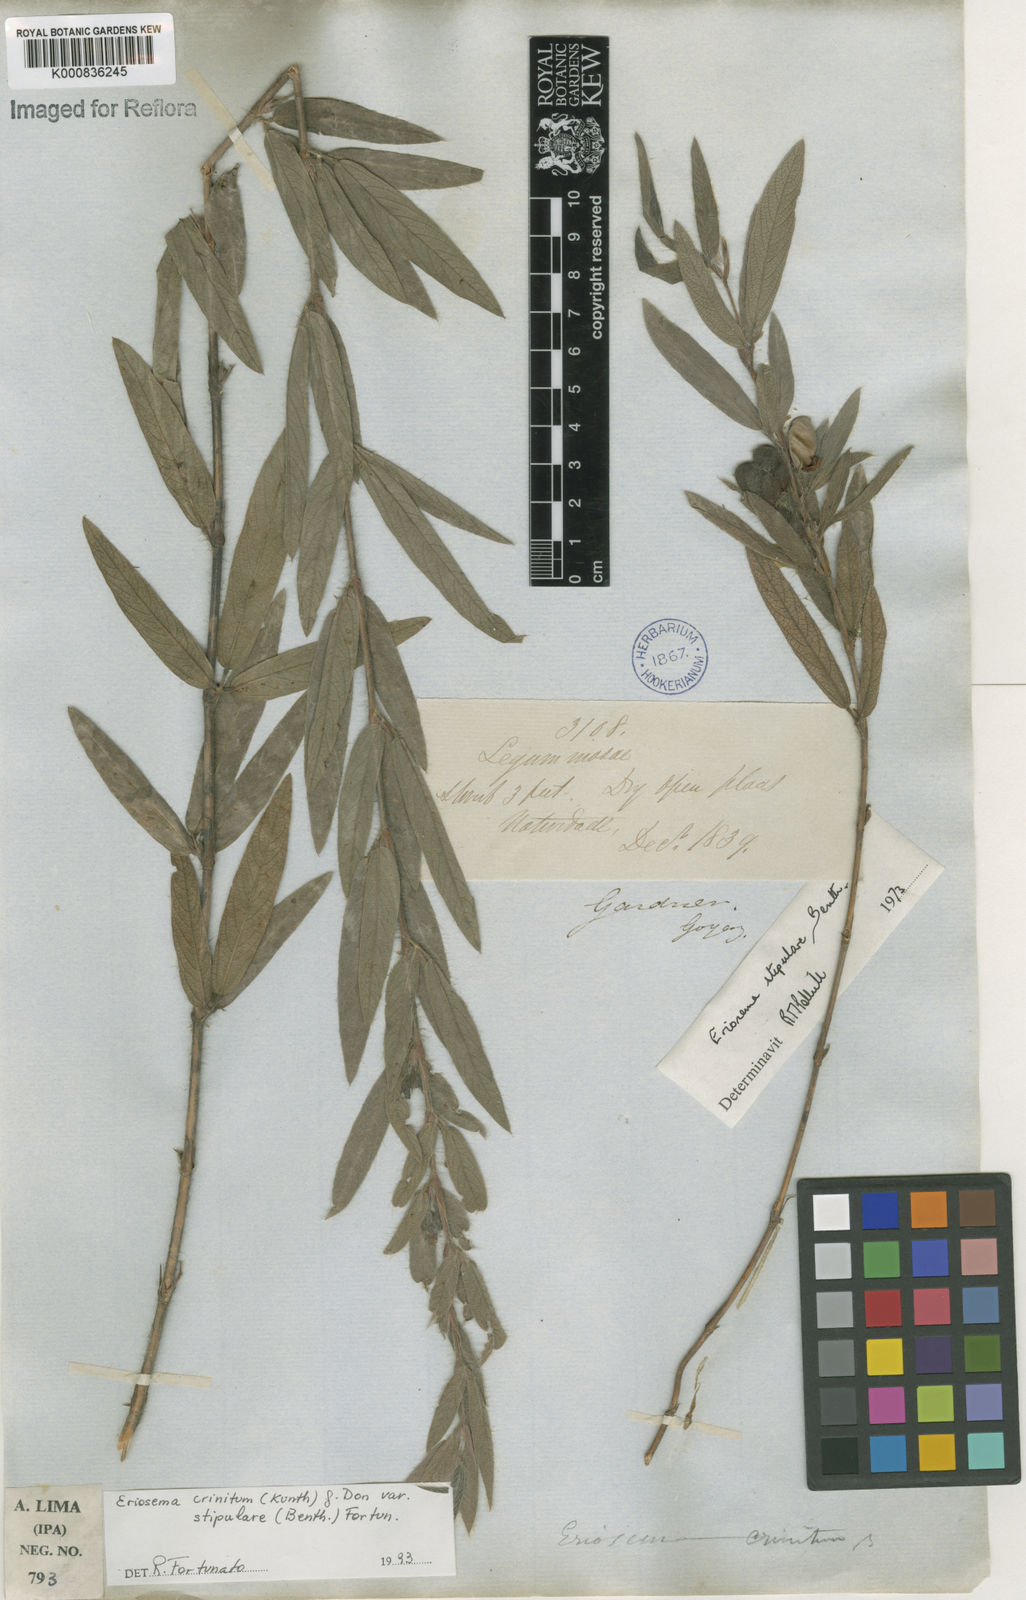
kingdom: Plantae
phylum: Tracheophyta
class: Magnoliopsida
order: Fabales
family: Fabaceae
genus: Eriosema
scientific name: Eriosema crinitum
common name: Sand pea
